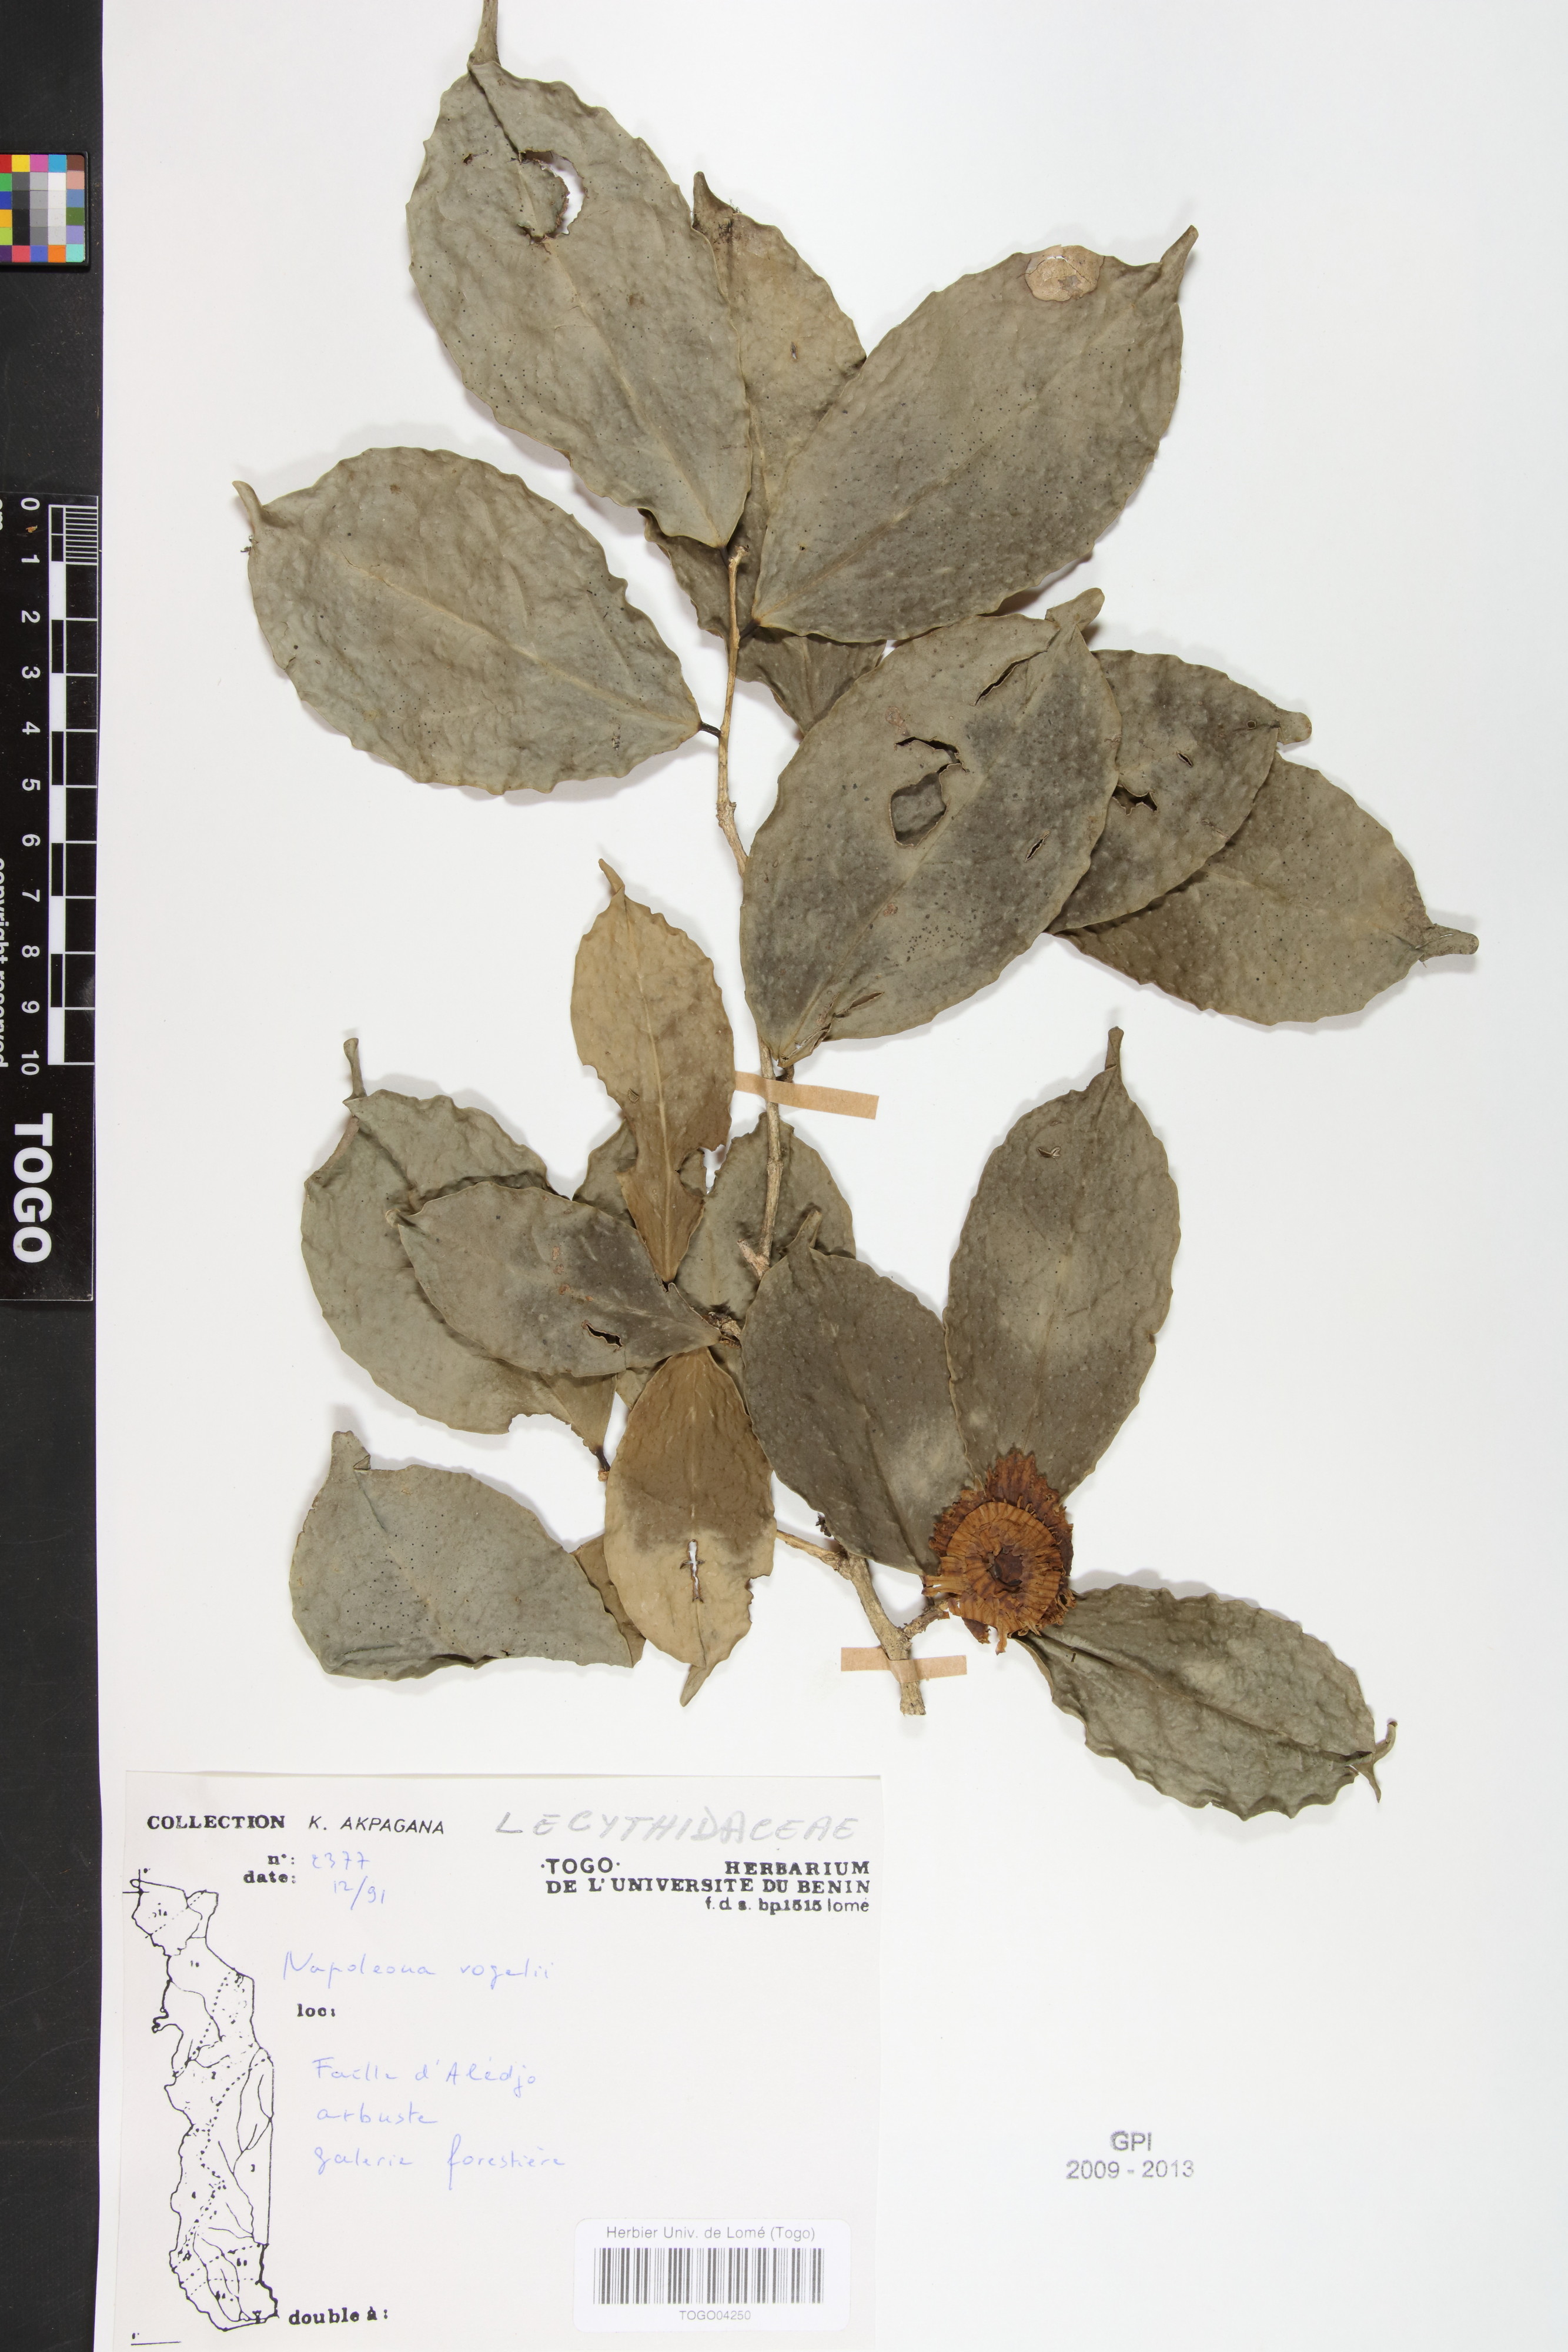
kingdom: Plantae
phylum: Tracheophyta
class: Magnoliopsida
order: Ericales
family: Lecythidaceae
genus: Napoleonaea
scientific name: Napoleonaea vogelii
